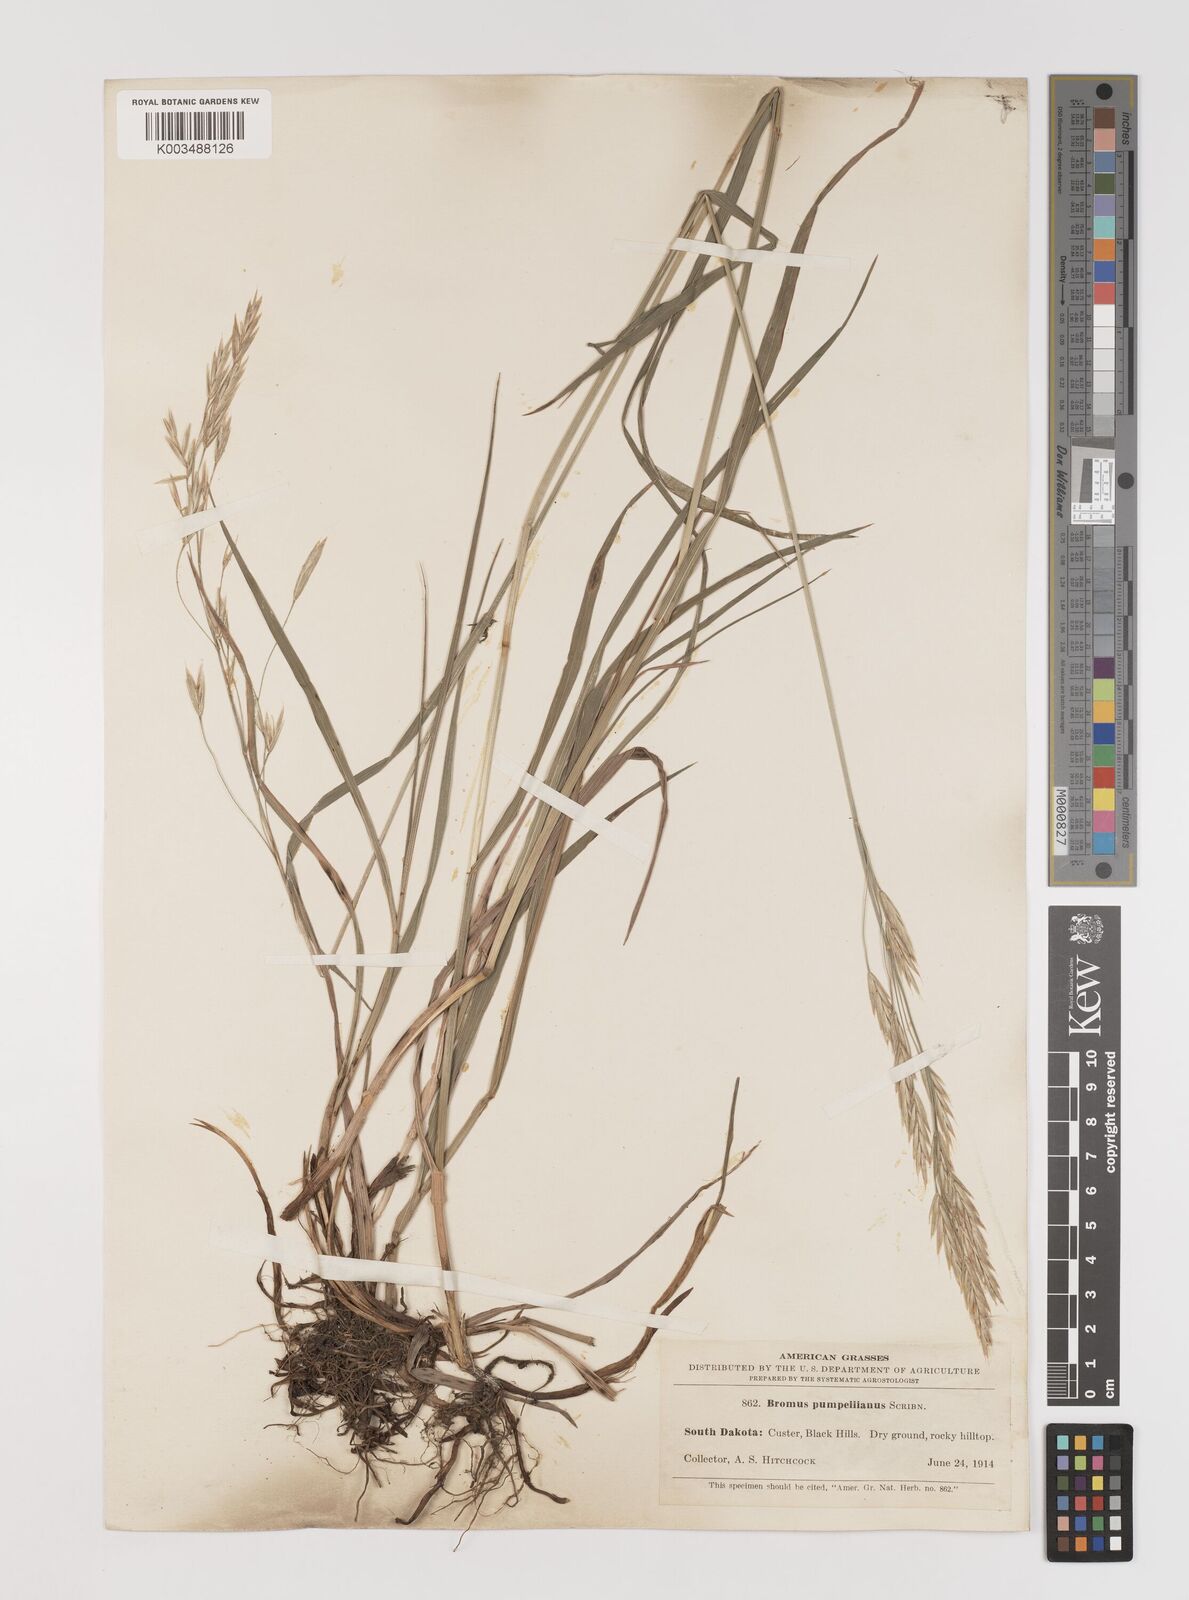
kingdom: Plantae
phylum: Tracheophyta
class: Liliopsida
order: Poales
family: Poaceae
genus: Bromus
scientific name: Bromus pumpellianus
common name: Pumpelly's brome
